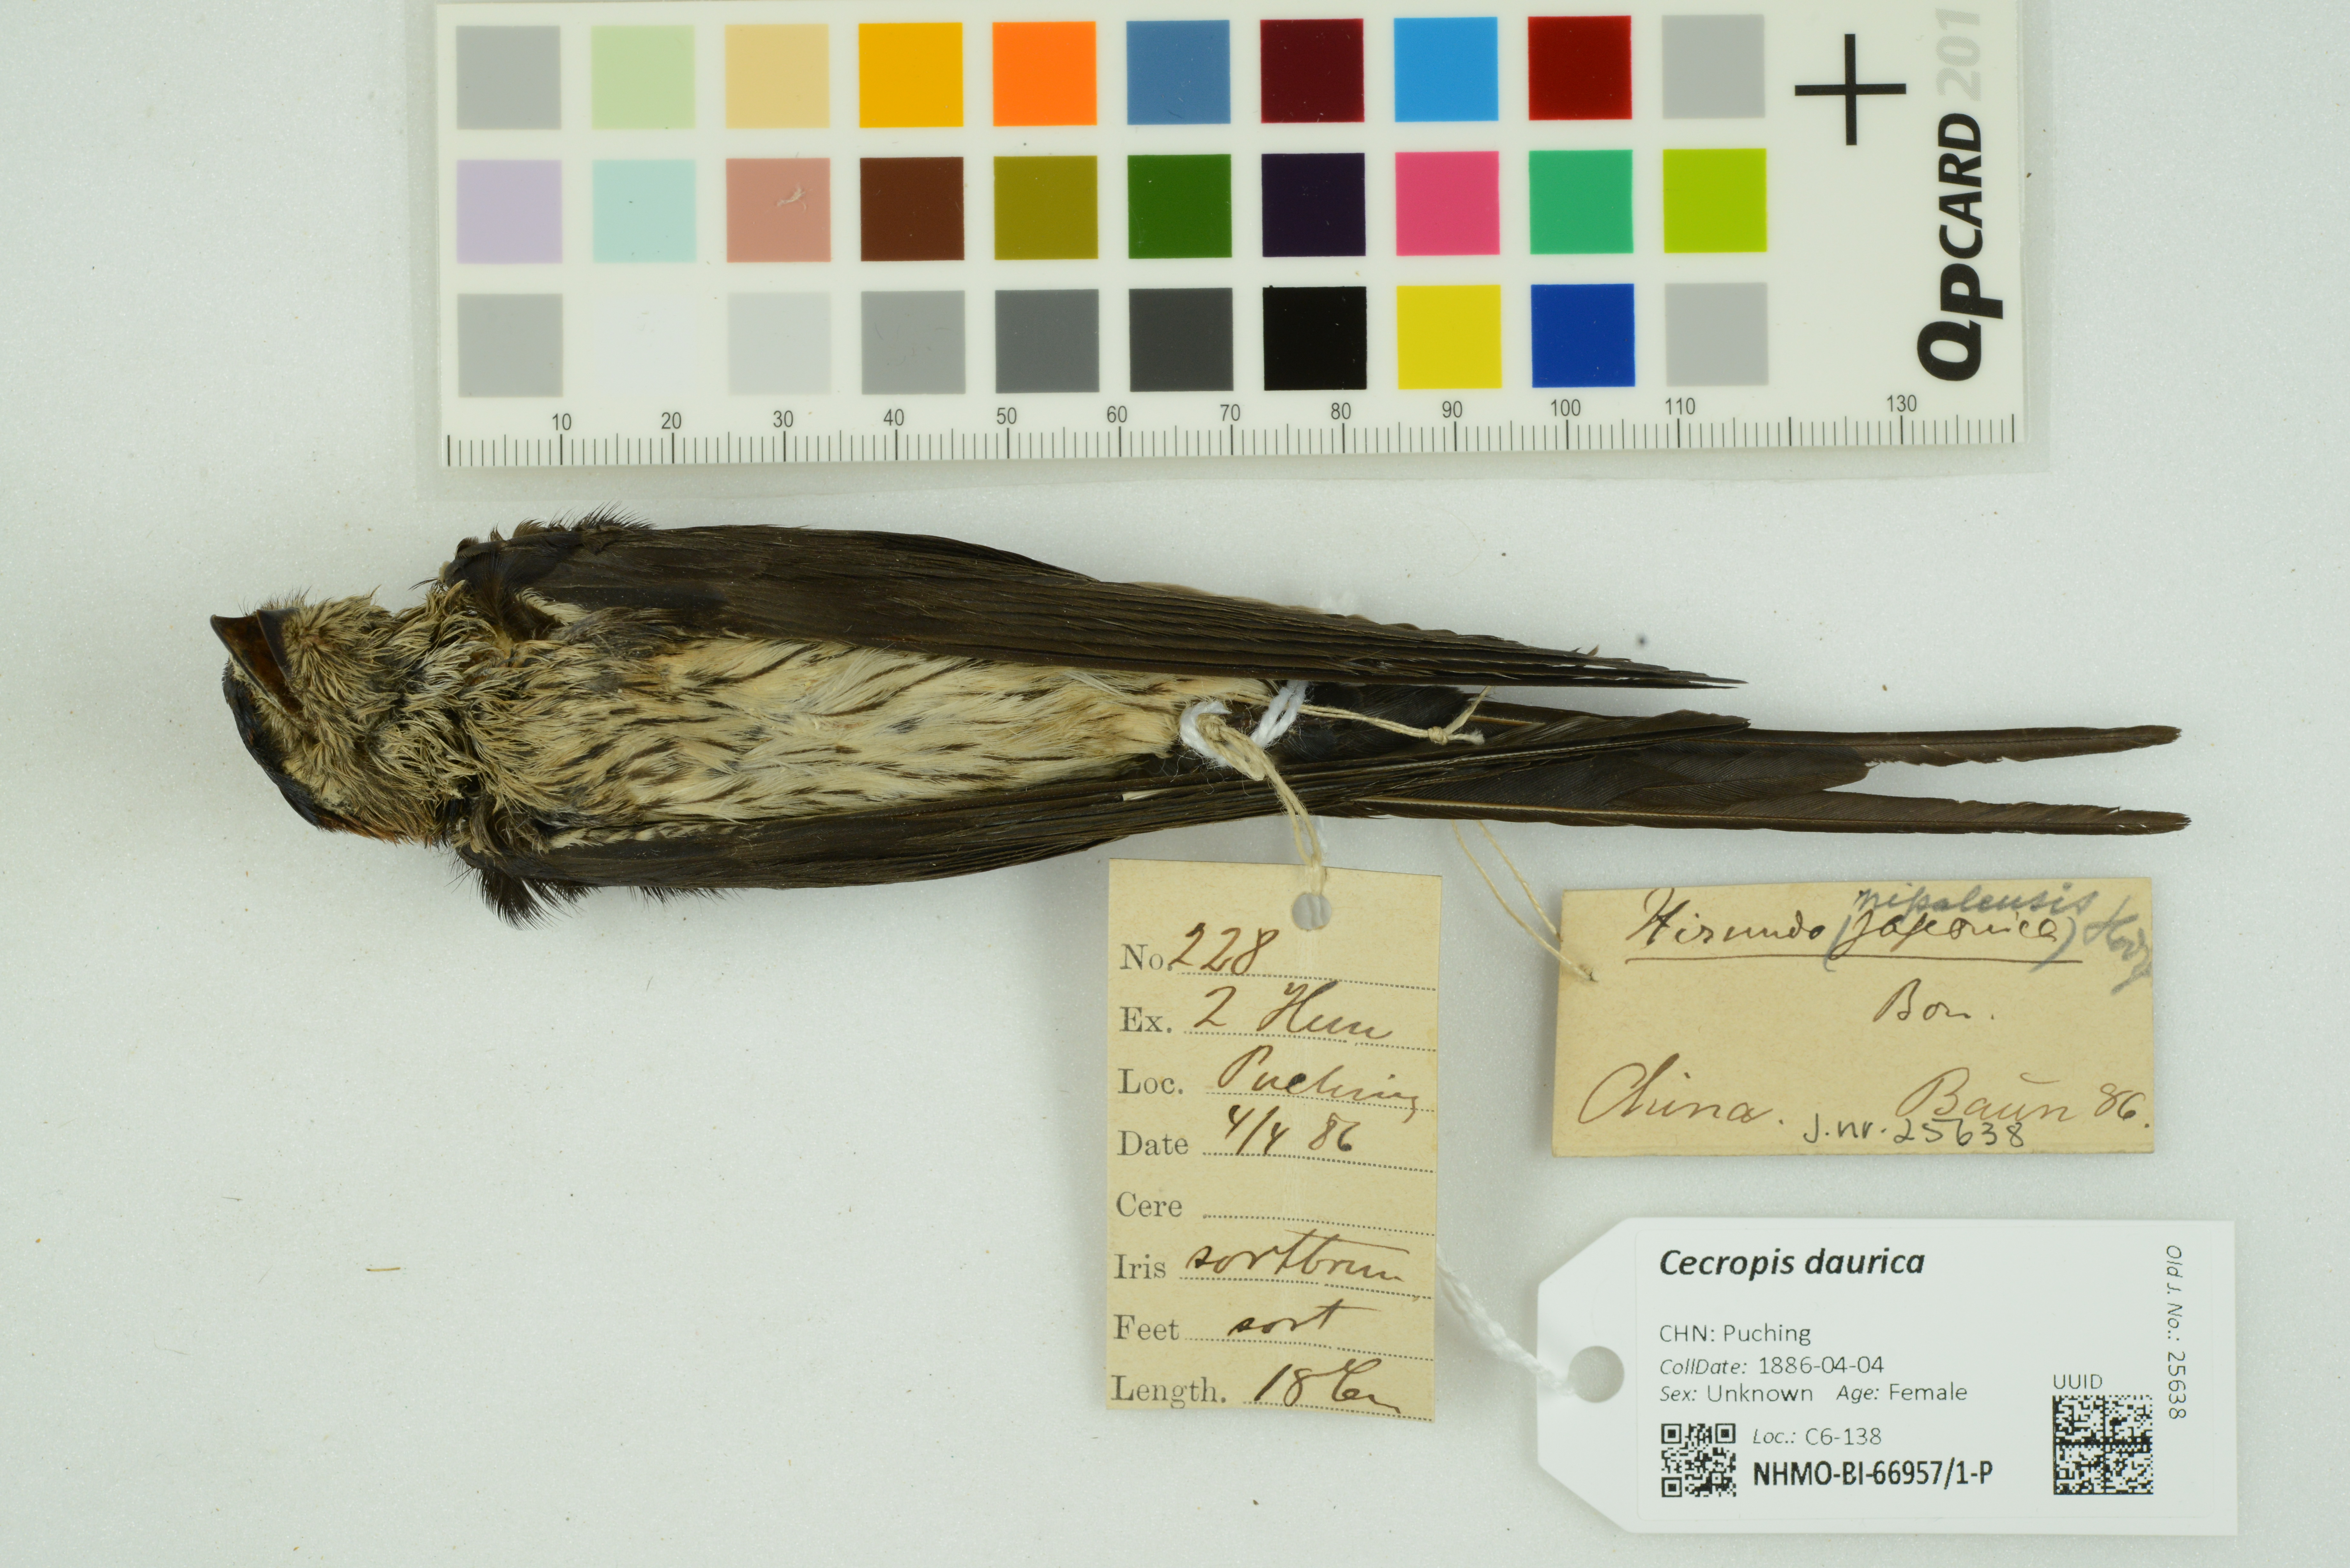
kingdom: Animalia
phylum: Chordata
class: Aves
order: Passeriformes
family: Hirundinidae
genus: Cecropis
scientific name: Cecropis daurica
